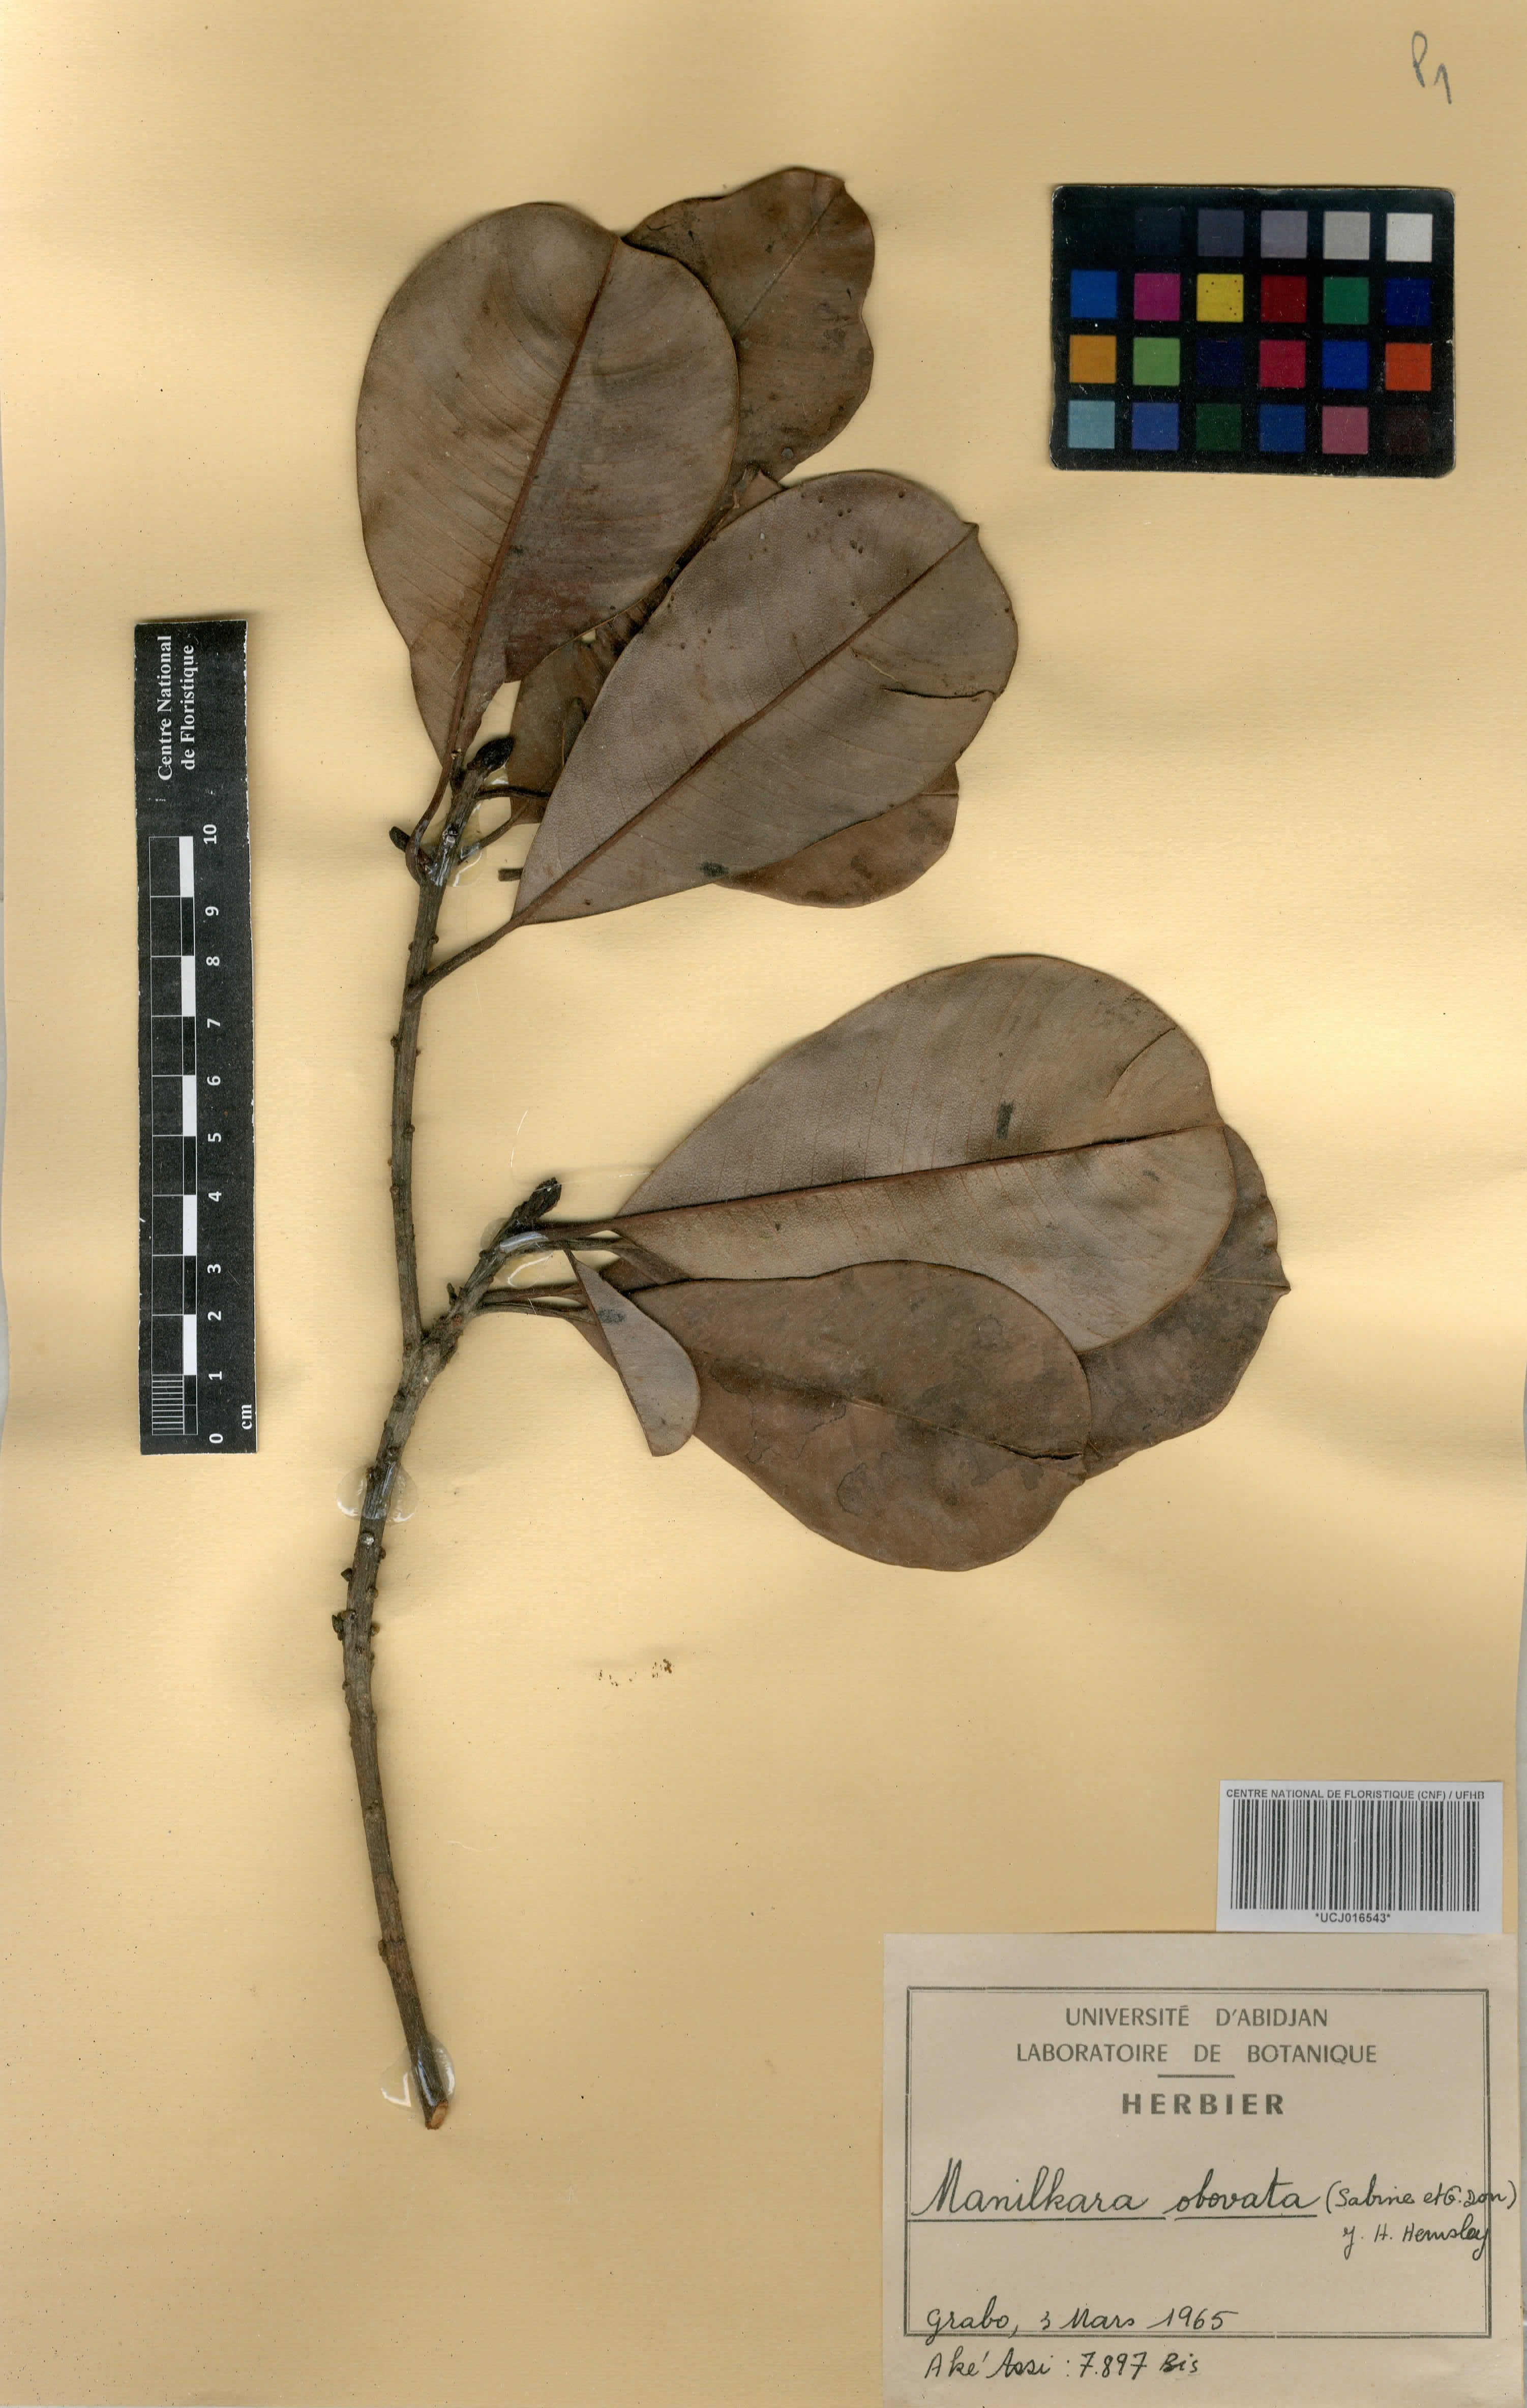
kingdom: Plantae
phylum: Tracheophyta
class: Magnoliopsida
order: Ericales
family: Sapotaceae
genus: Manilkara
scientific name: Manilkara obovata
